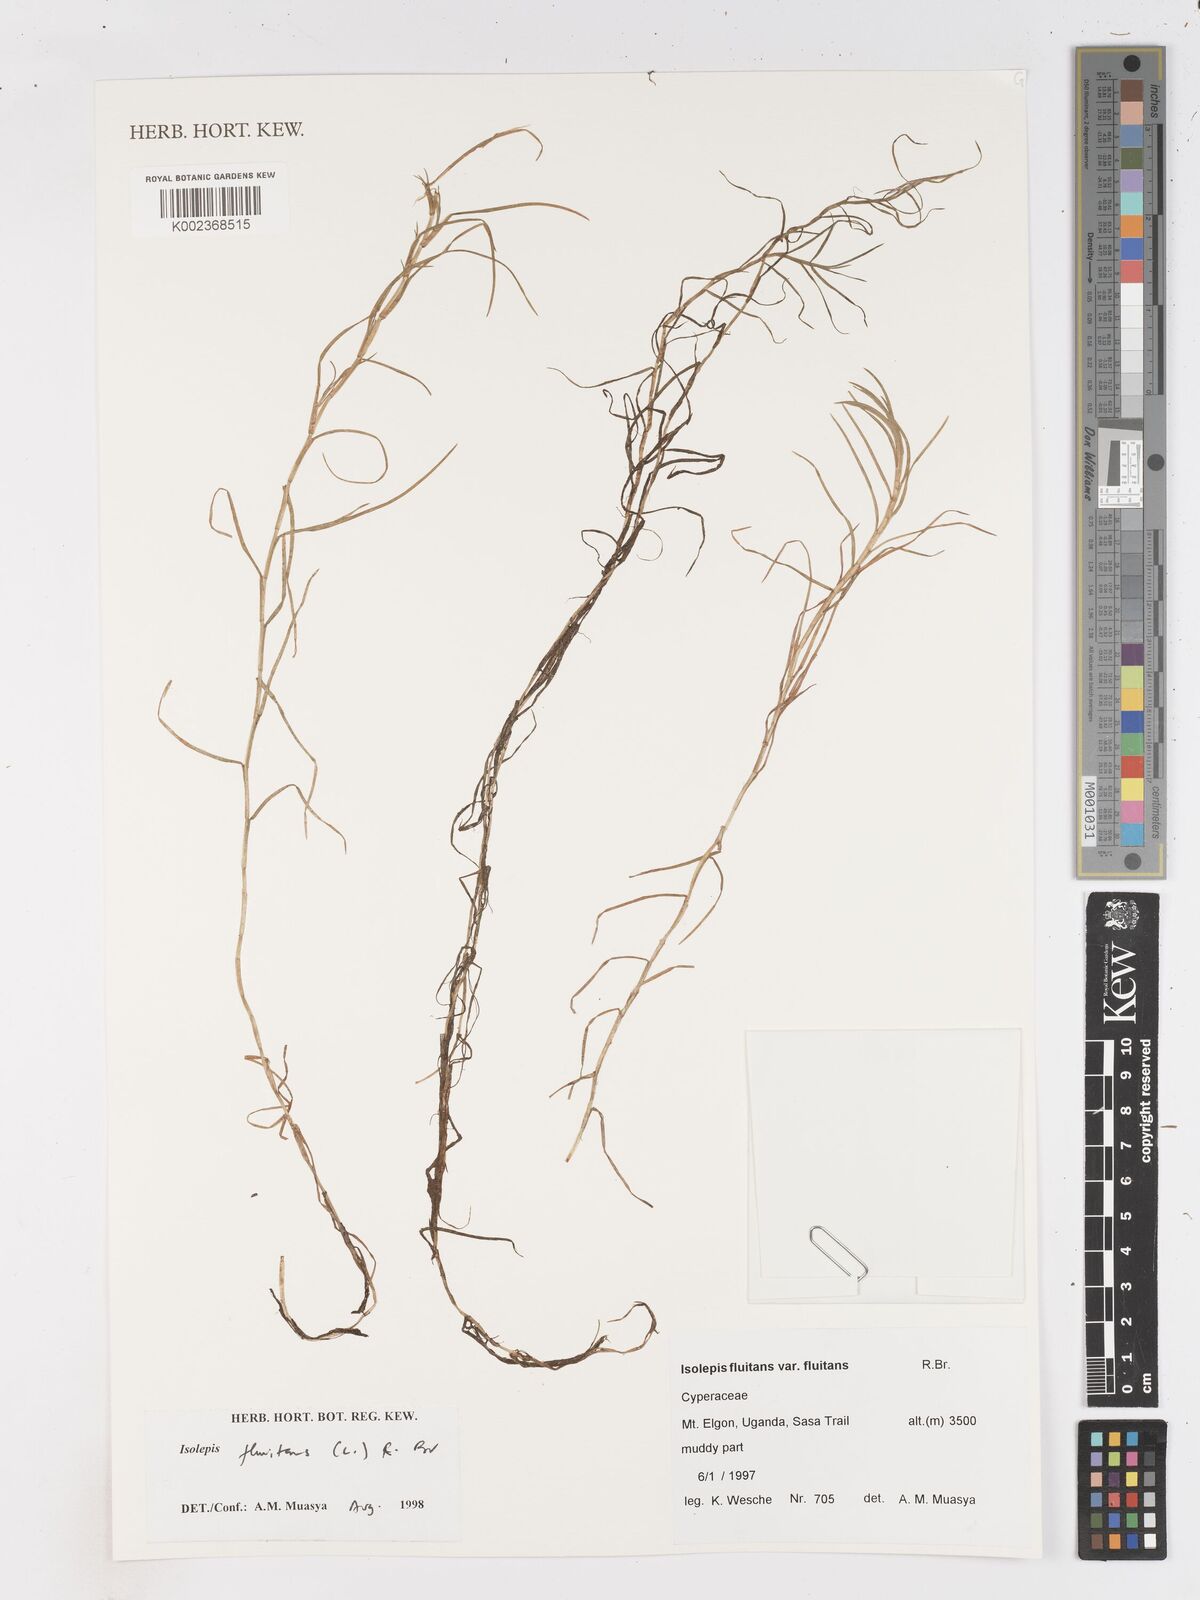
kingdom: Plantae
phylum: Tracheophyta
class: Liliopsida
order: Poales
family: Cyperaceae
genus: Isolepis
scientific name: Isolepis fluitans
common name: Floating club-rush
